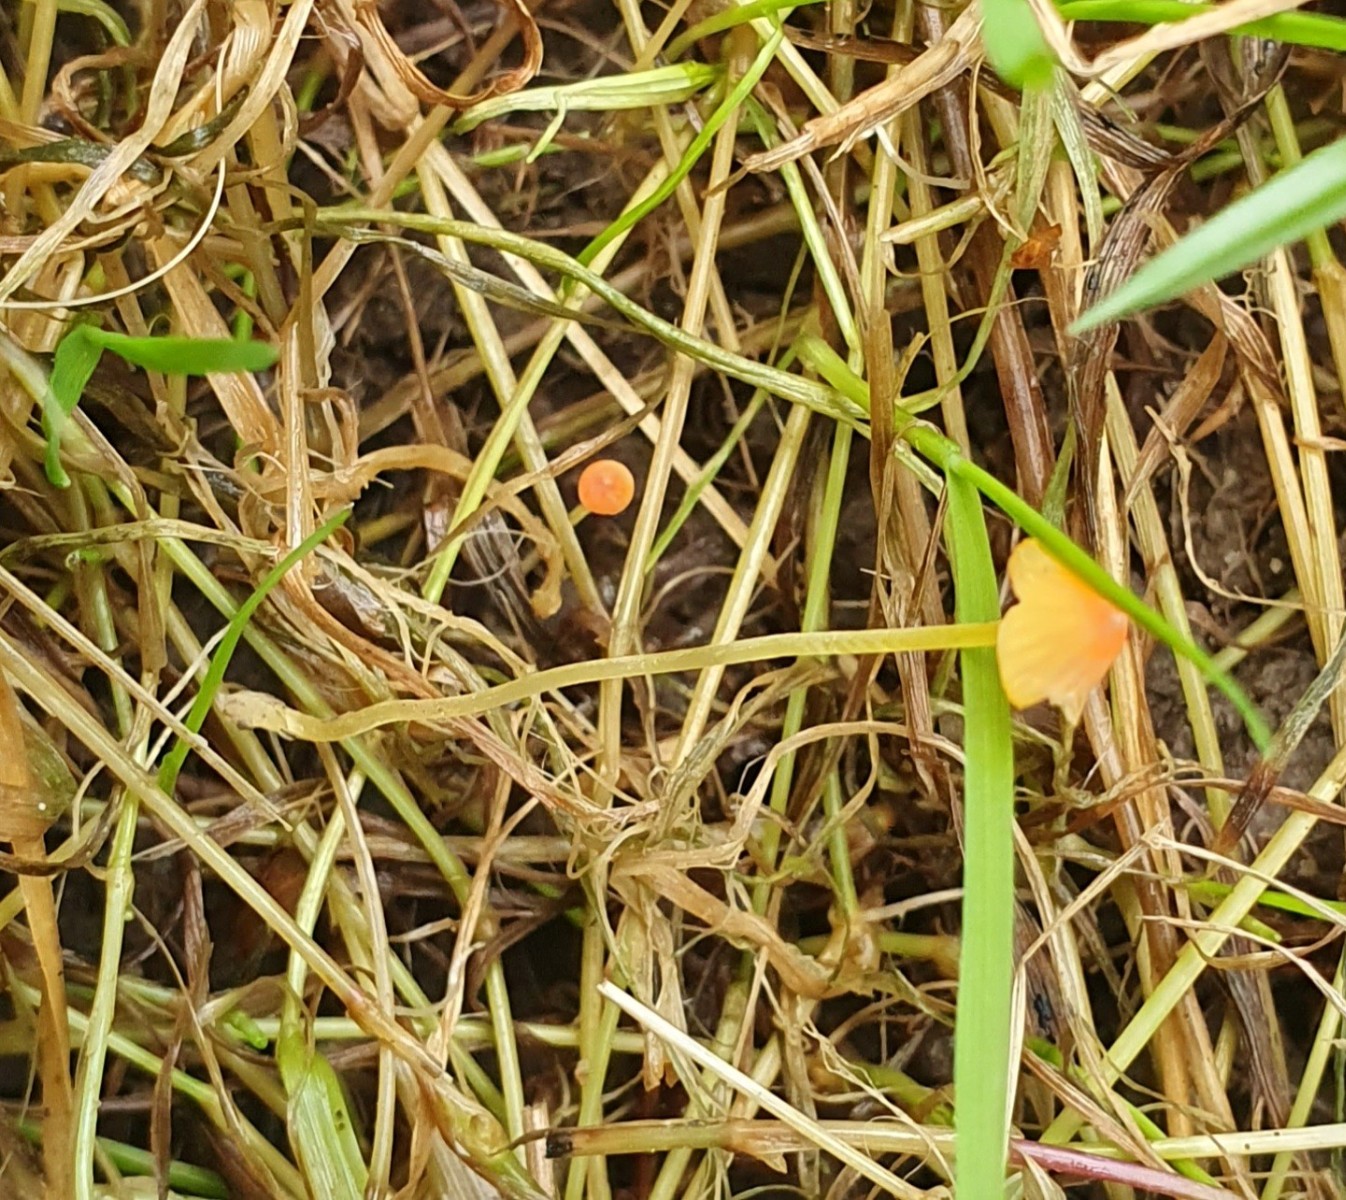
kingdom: Fungi
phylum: Basidiomycota
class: Agaricomycetes
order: Agaricales
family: Mycenaceae
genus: Mycena
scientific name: Mycena acicula
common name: orange huesvamp
